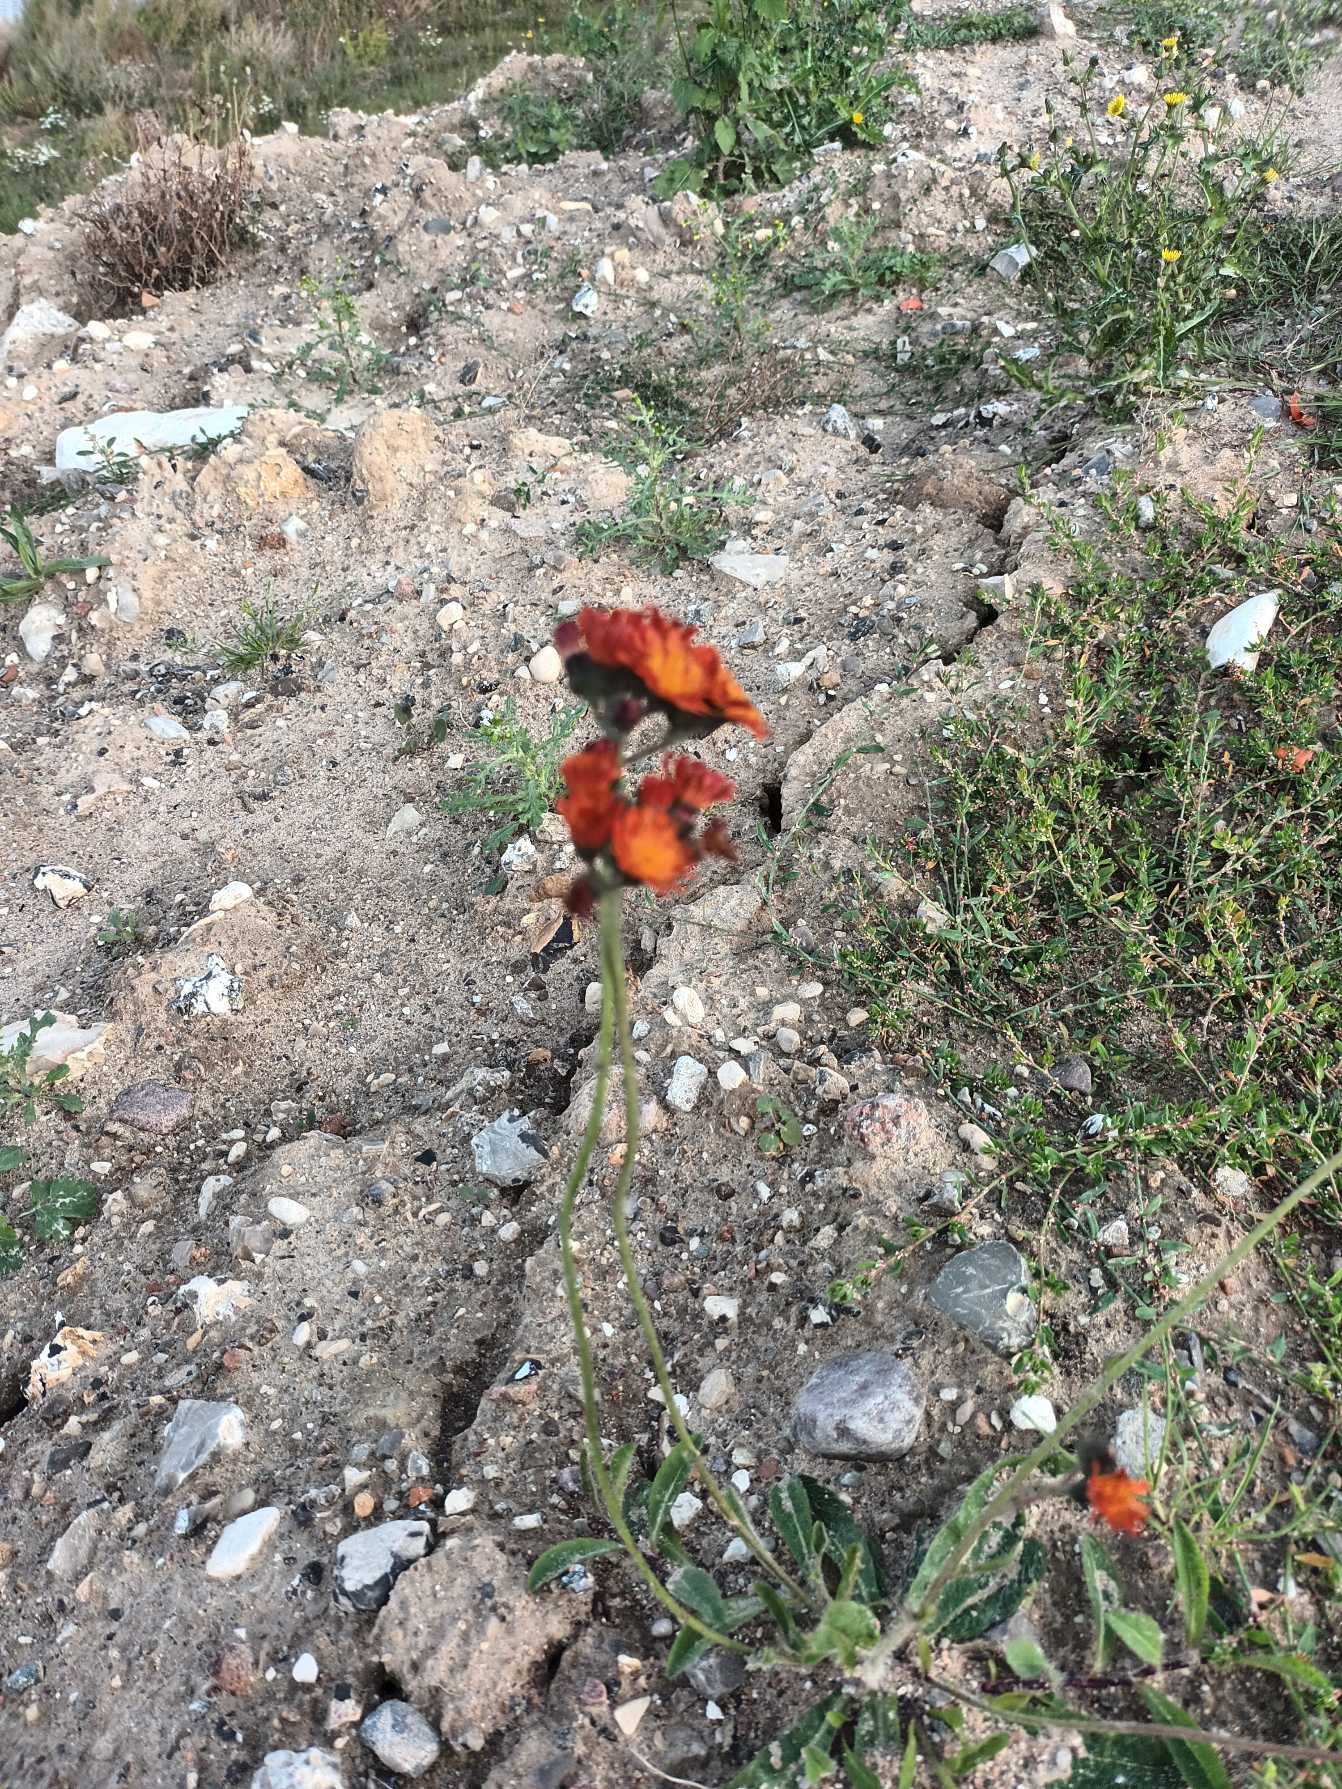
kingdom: Plantae
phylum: Tracheophyta
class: Magnoliopsida
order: Asterales
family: Asteraceae
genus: Pilosella
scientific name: Pilosella aurantiaca
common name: Pomerans-høgeurt
